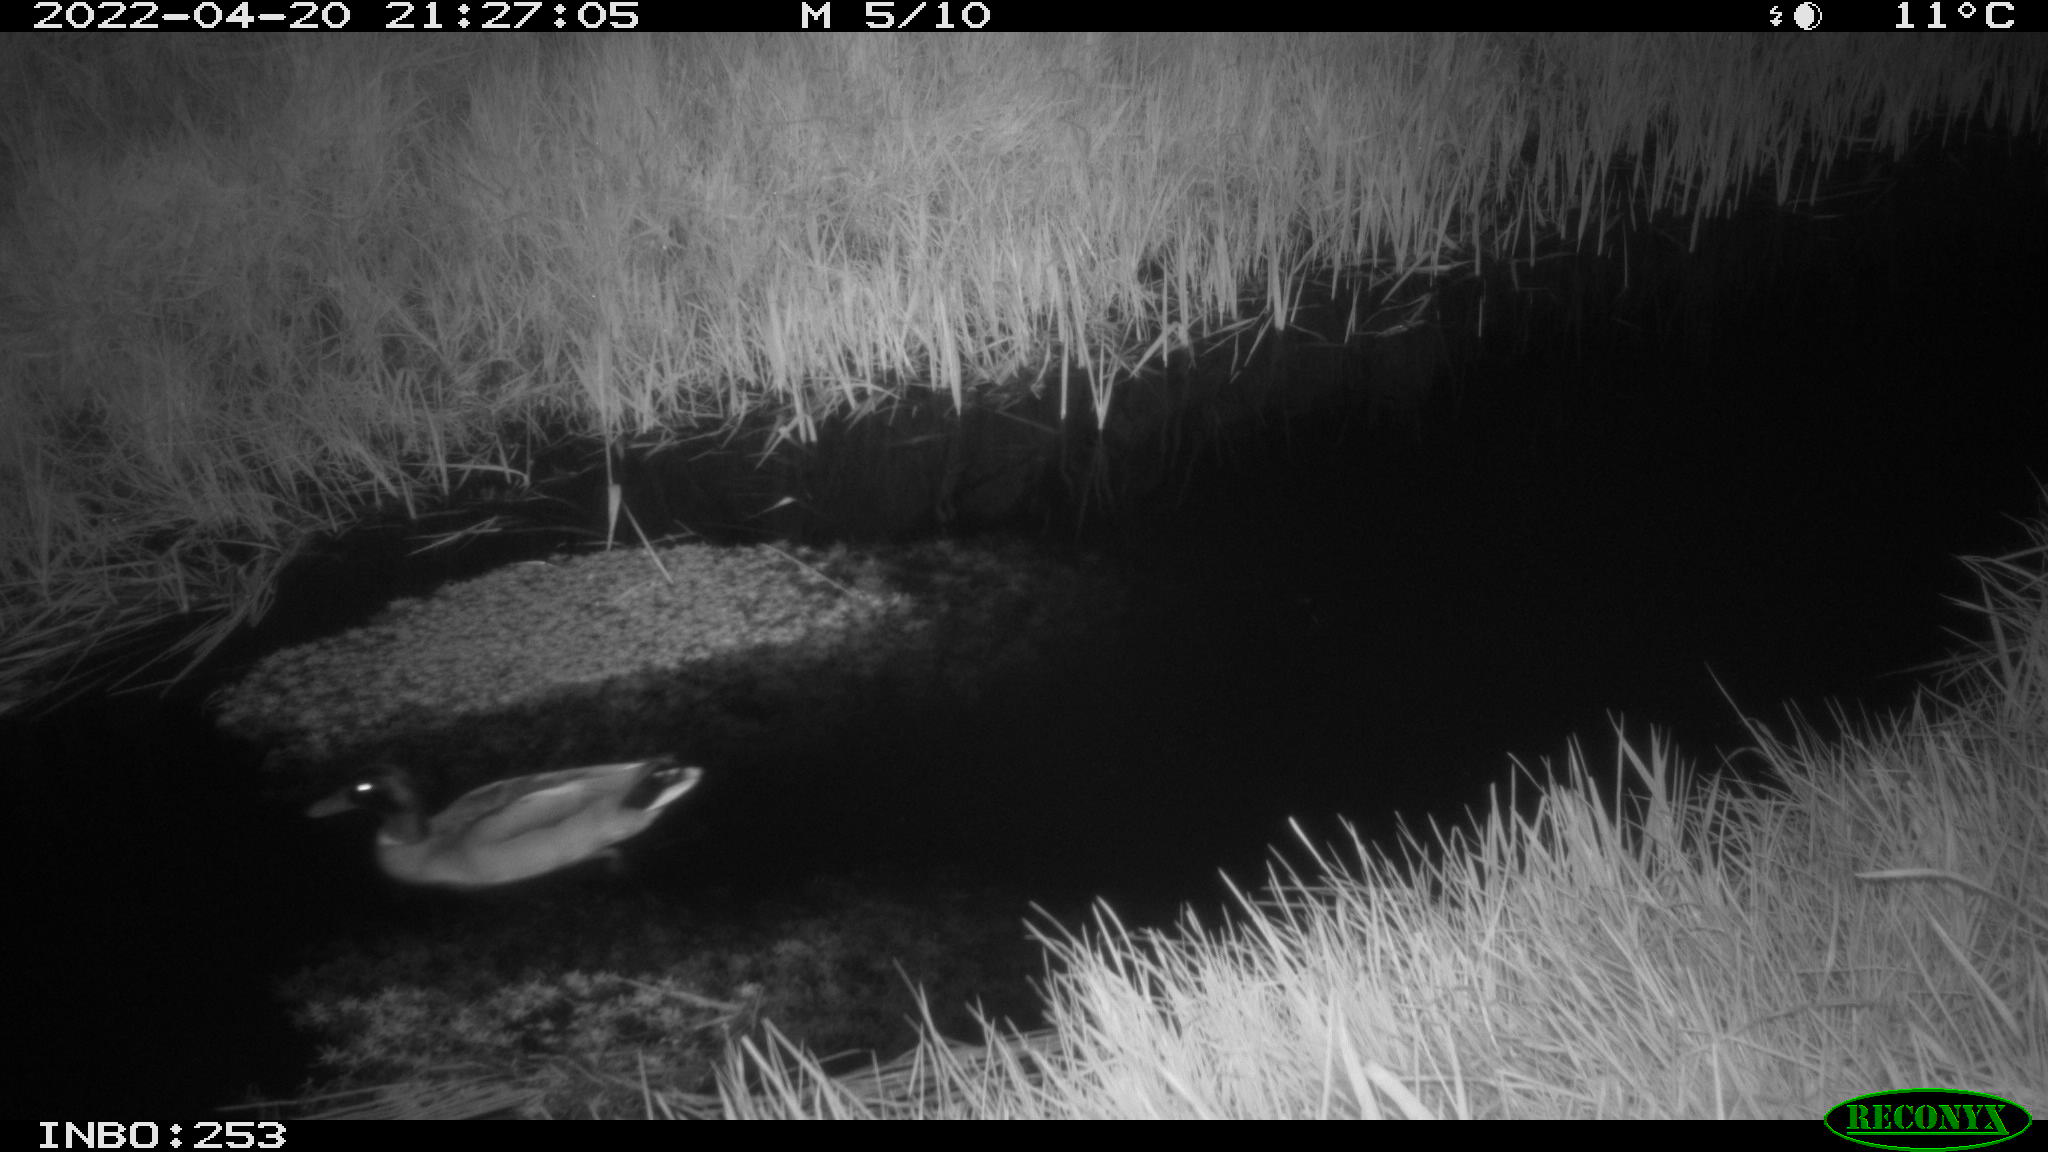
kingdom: Animalia
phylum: Chordata
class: Aves
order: Anseriformes
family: Anatidae
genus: Anas
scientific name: Anas platyrhynchos
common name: Mallard
